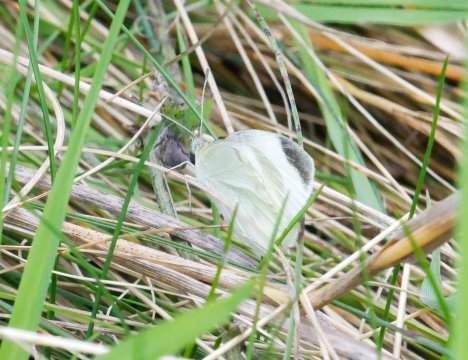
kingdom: Animalia
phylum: Arthropoda
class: Insecta
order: Lepidoptera
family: Pieridae
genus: Pieris
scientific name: Pieris rapae
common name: Cabbage White
